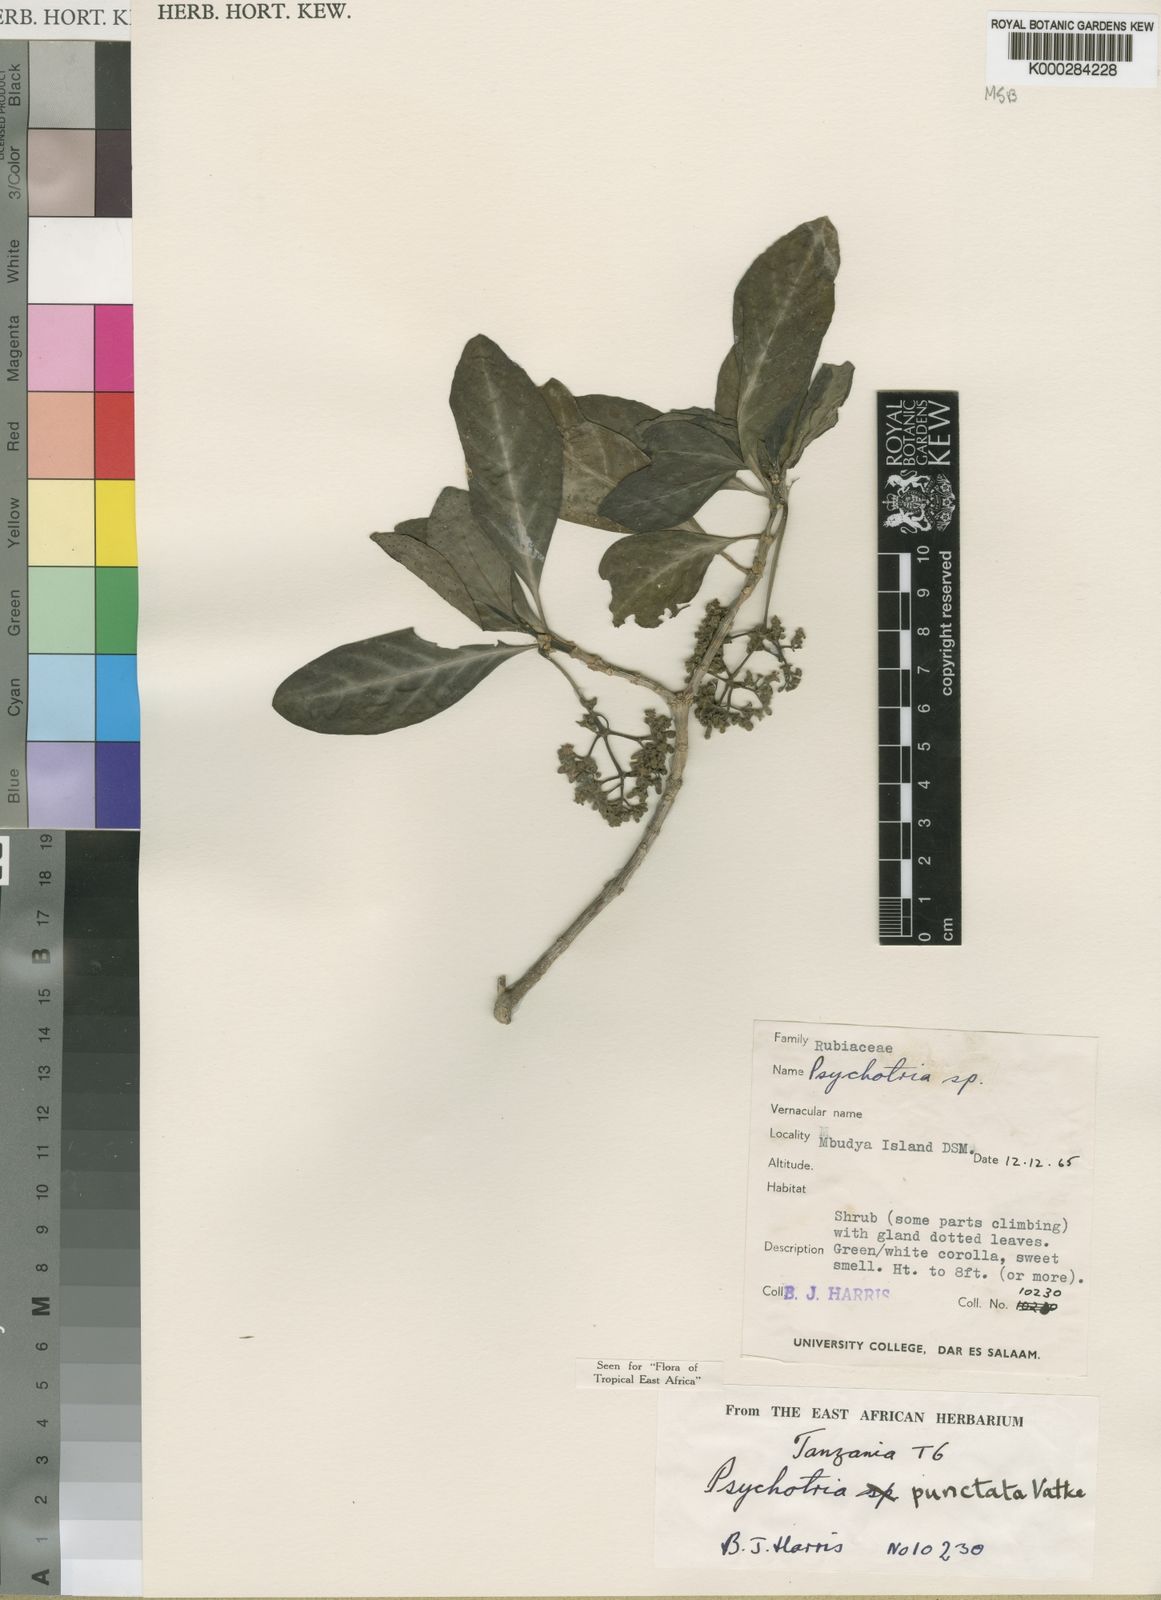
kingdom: Plantae
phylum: Tracheophyta
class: Magnoliopsida
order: Gentianales
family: Rubiaceae
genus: Psychotria
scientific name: Psychotria punctata
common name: Dotted wild coffee
